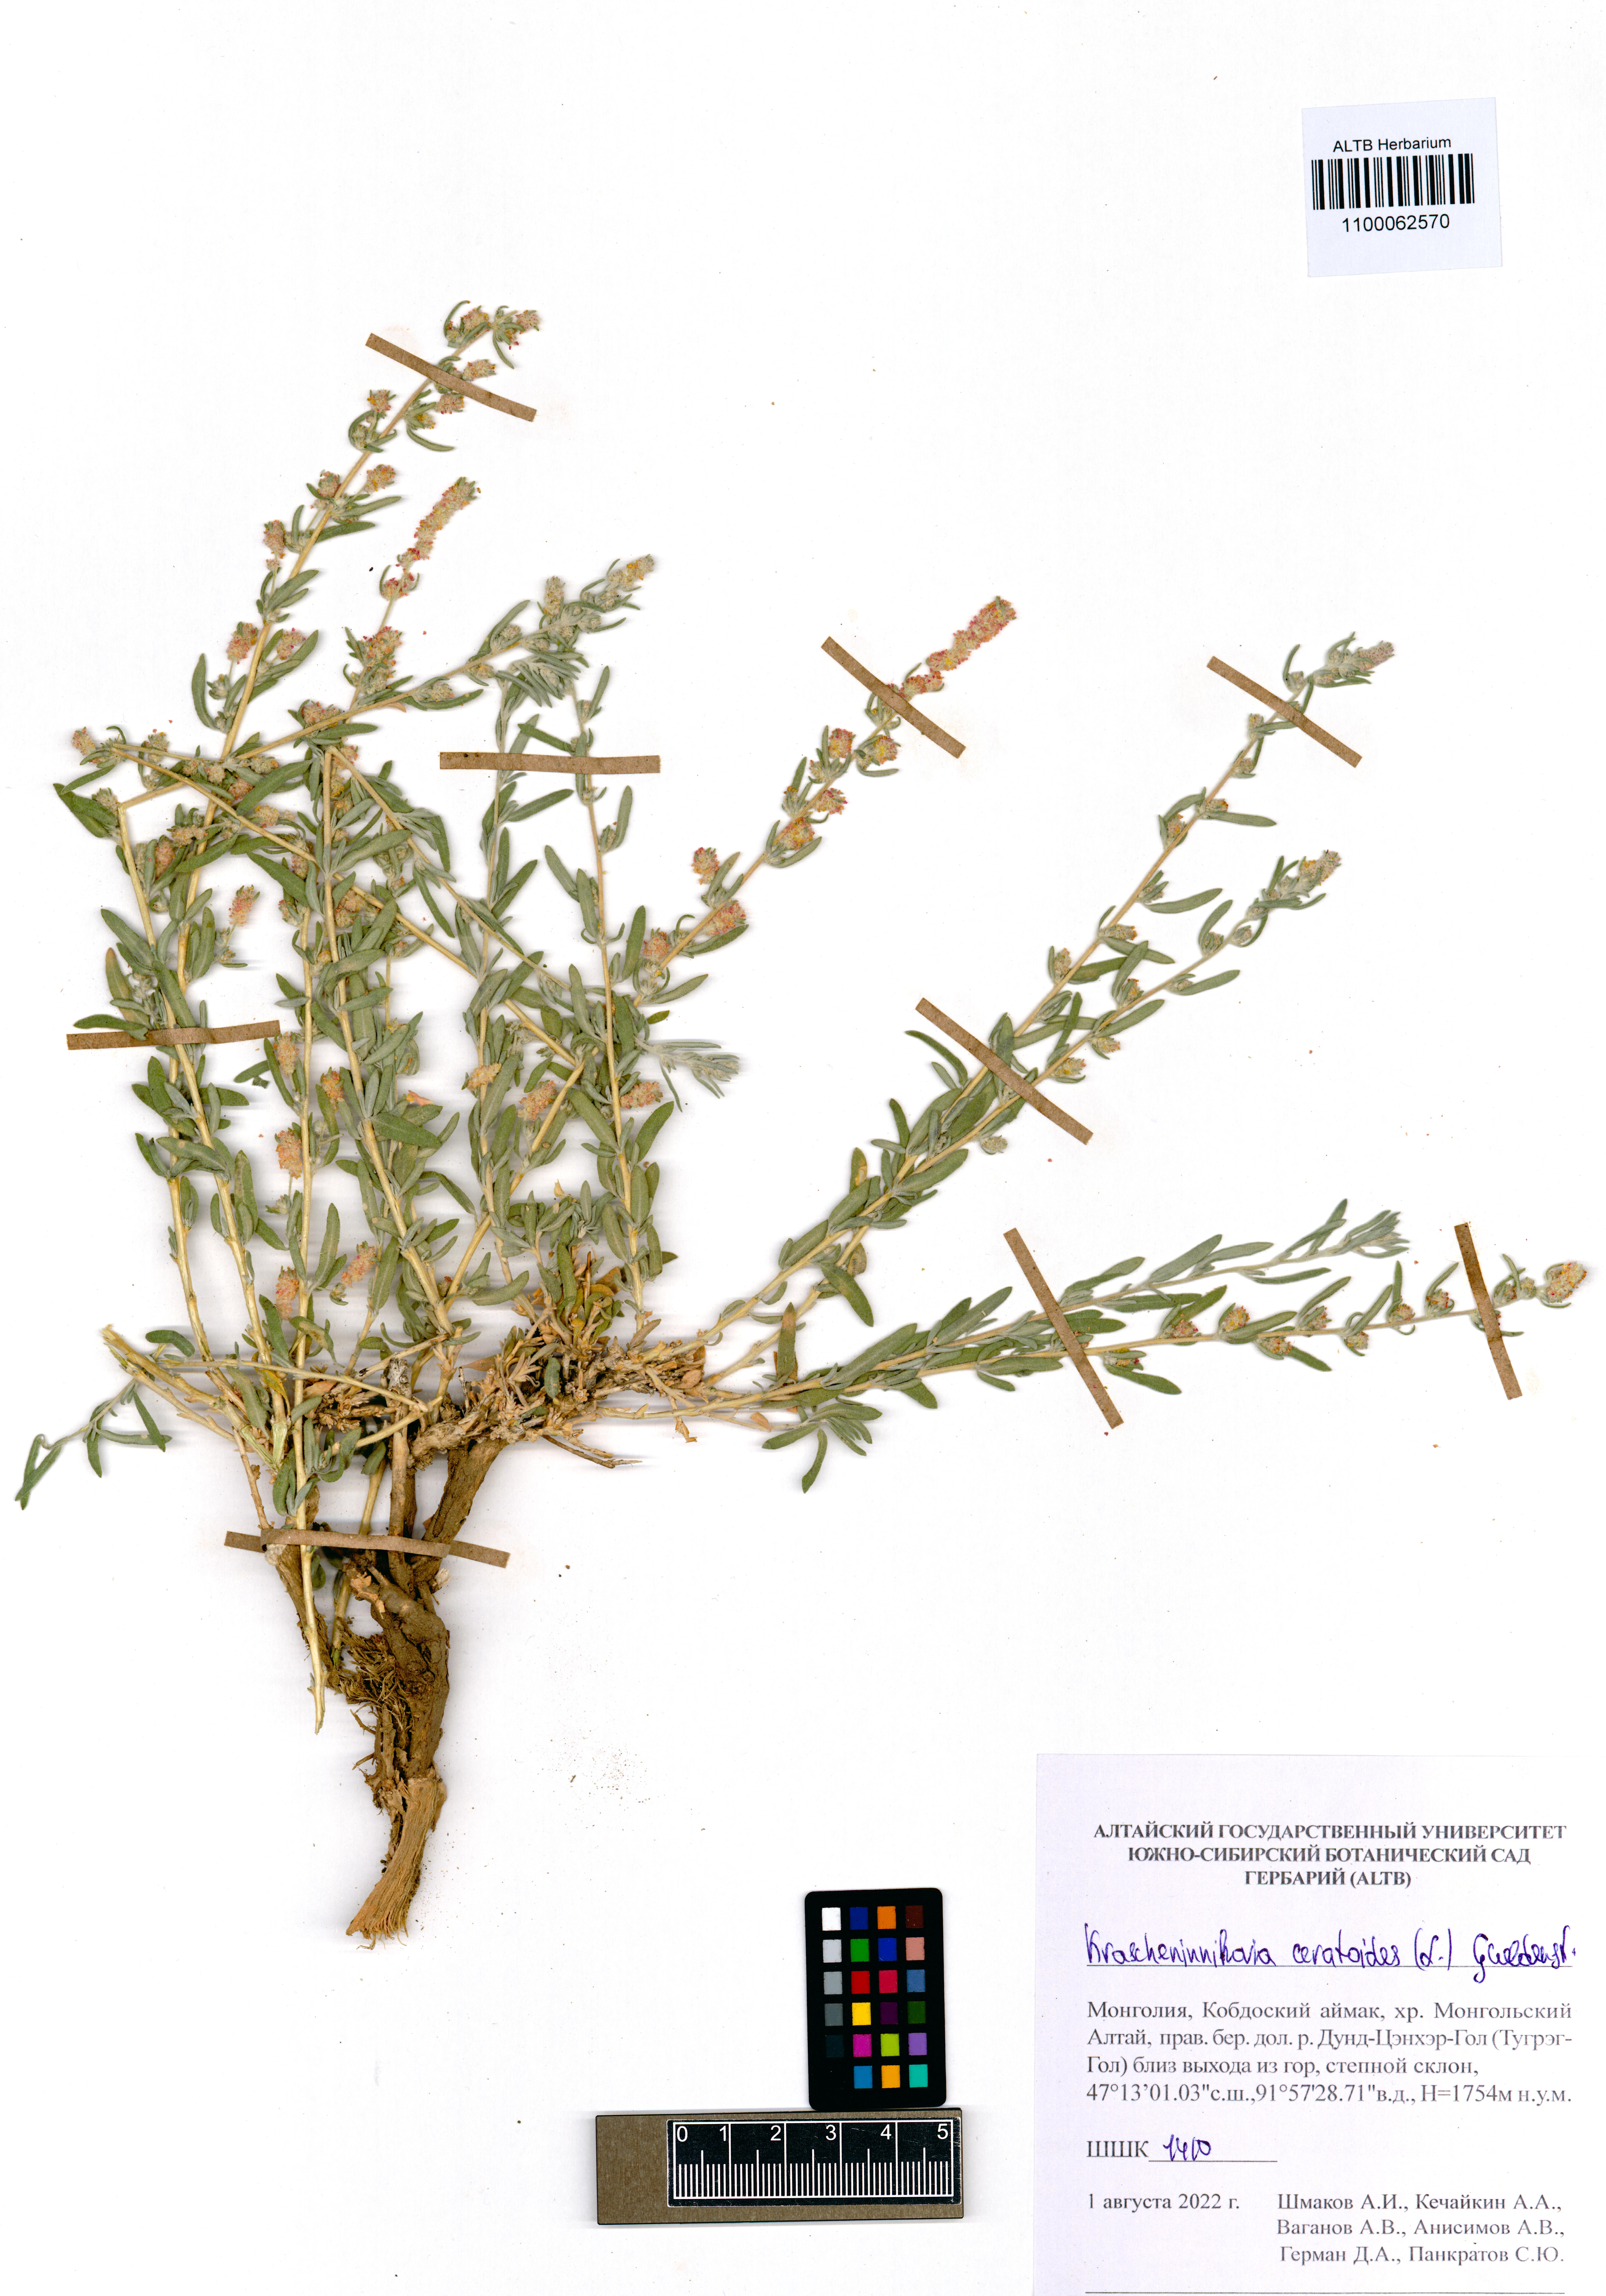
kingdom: Plantae
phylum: Tracheophyta
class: Magnoliopsida
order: Caryophyllales
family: Amaranthaceae
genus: Krascheninnikovia
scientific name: Krascheninnikovia ceratoides
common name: Pamirian winterfat
